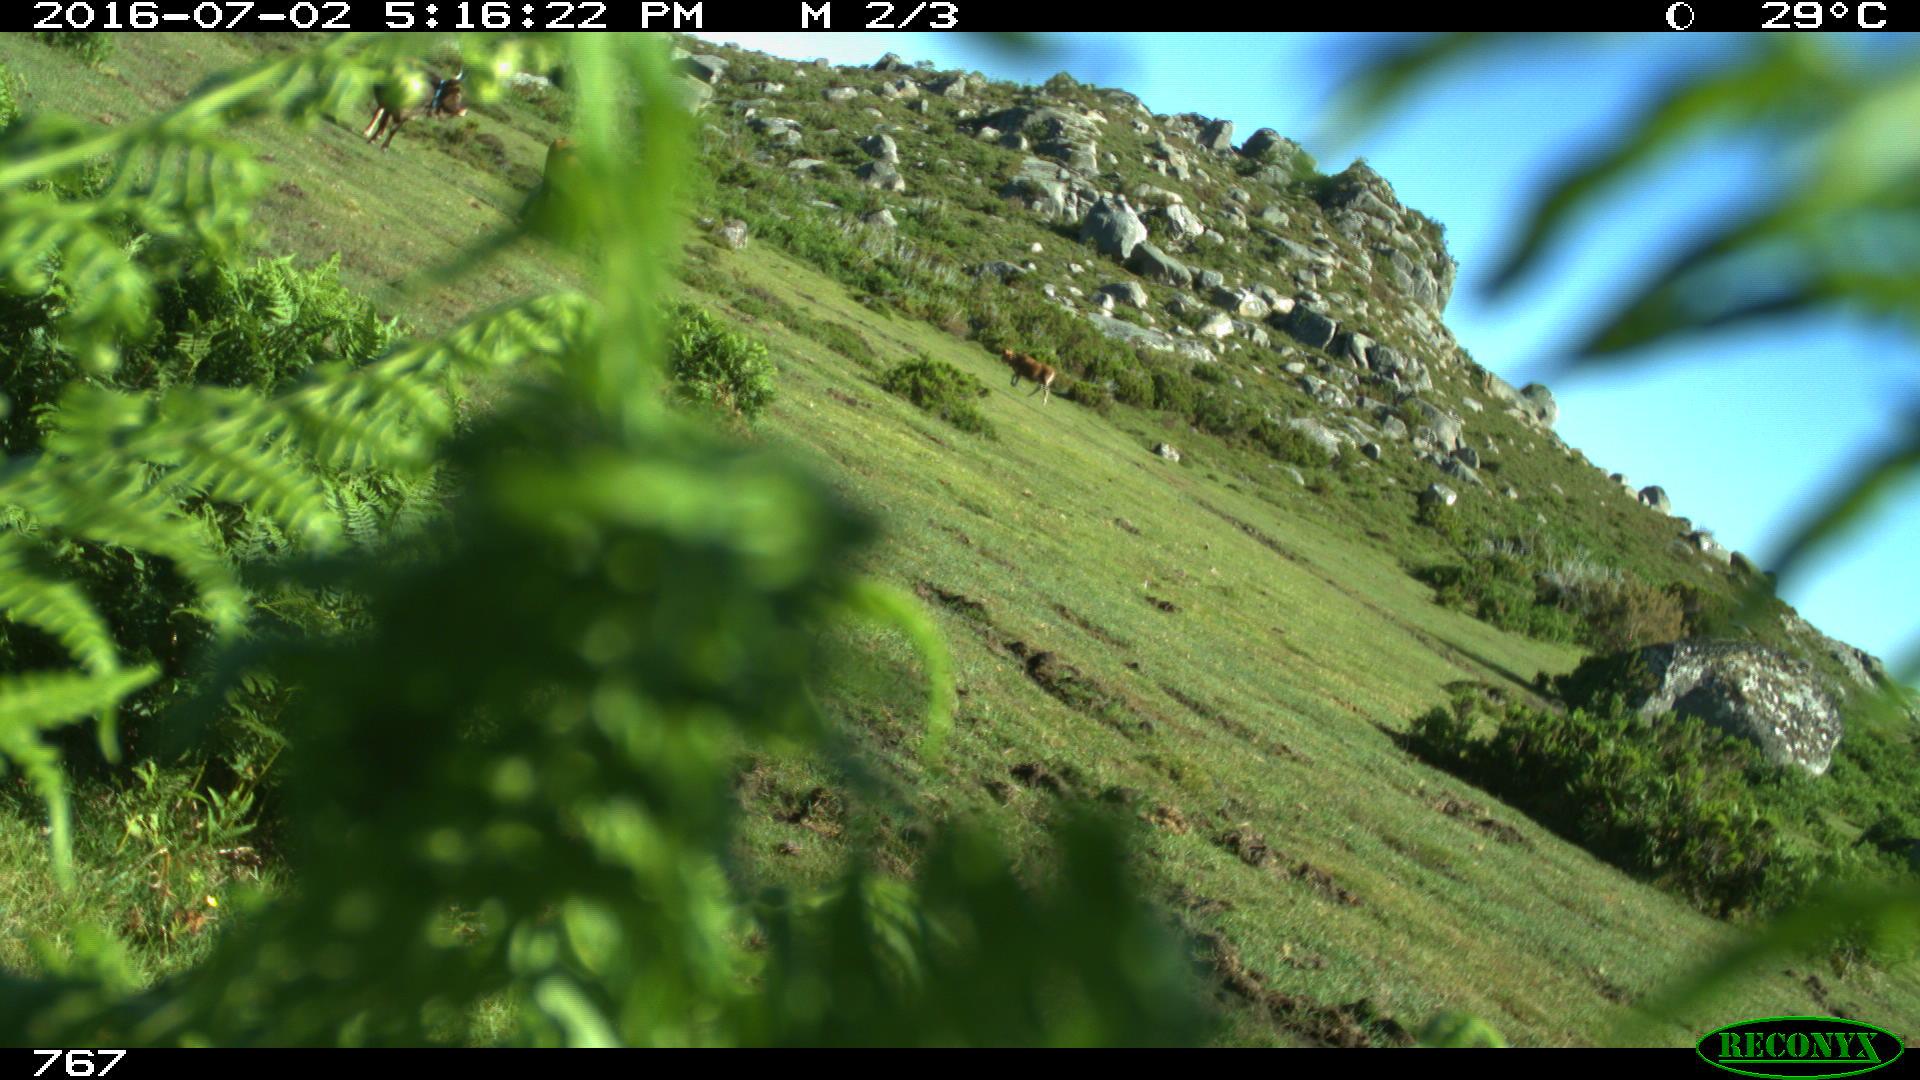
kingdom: Animalia
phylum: Chordata
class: Mammalia
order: Artiodactyla
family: Bovidae
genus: Bos
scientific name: Bos taurus
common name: Domesticated cattle
